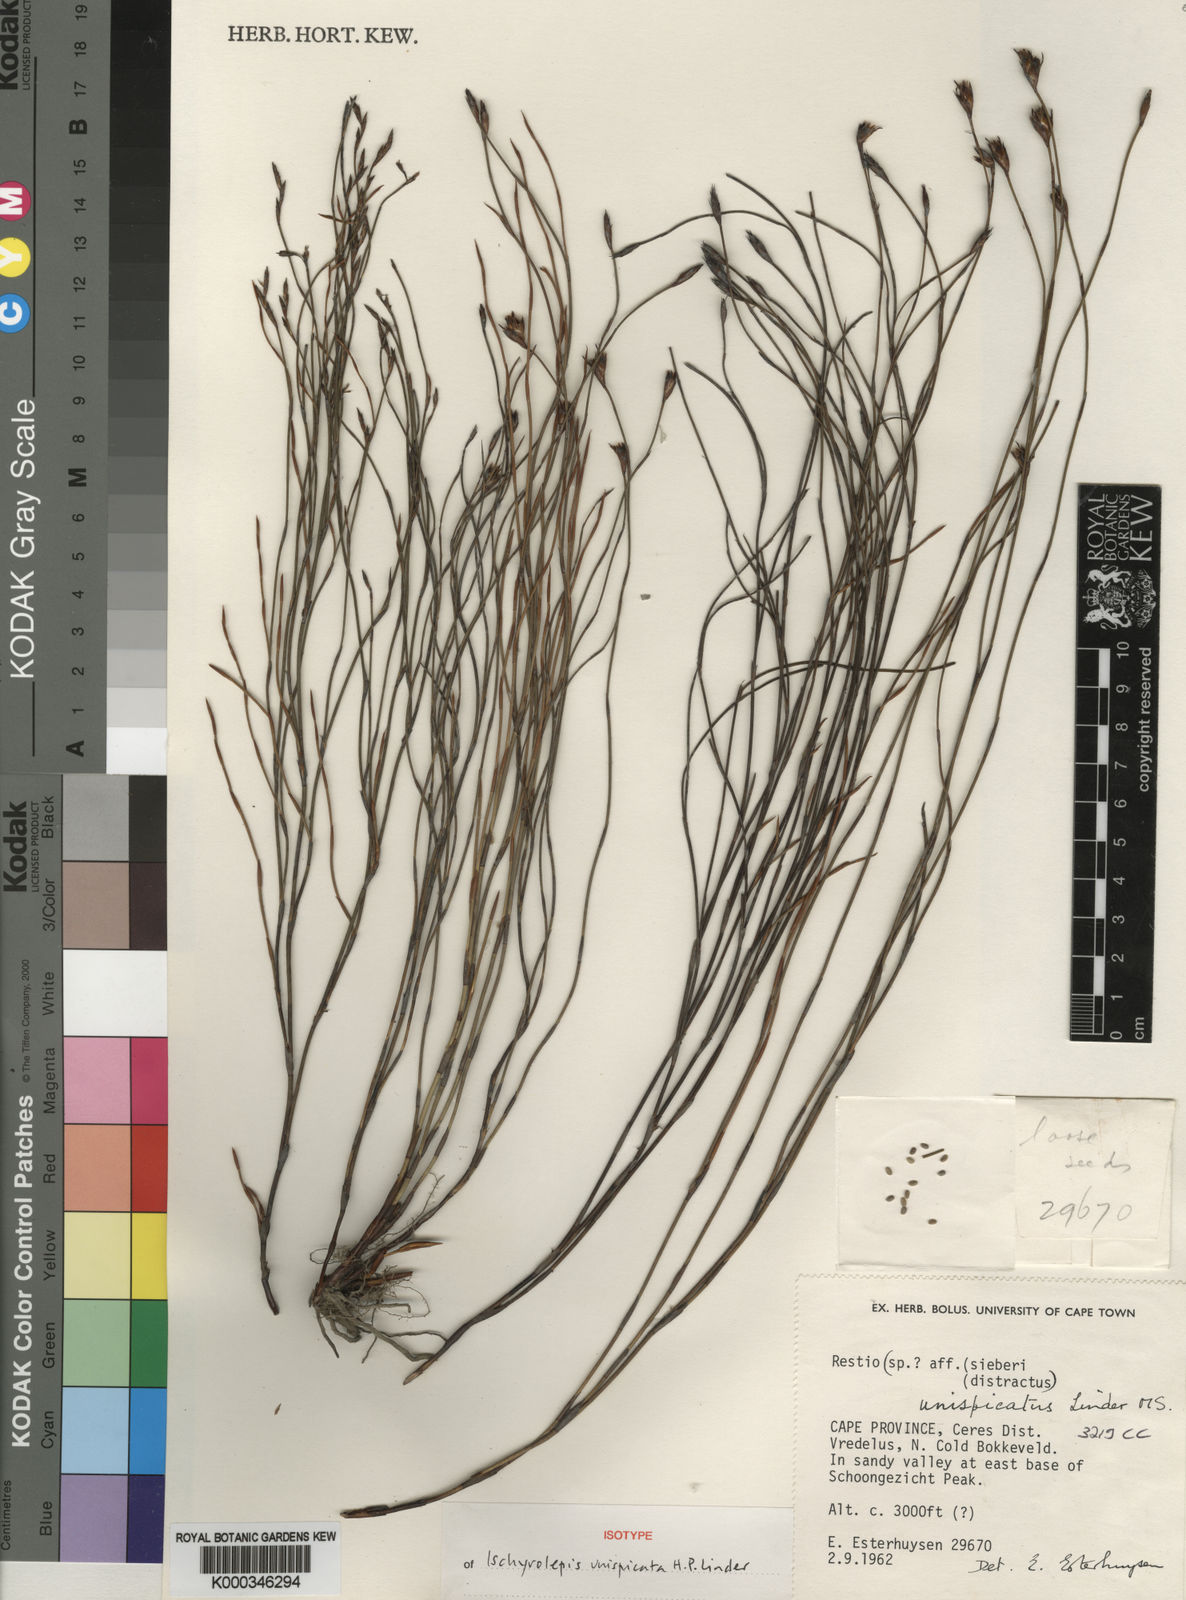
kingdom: Plantae
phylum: Tracheophyta
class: Liliopsida
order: Poales
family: Restionaceae
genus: Restio
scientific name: Restio unispicatus
